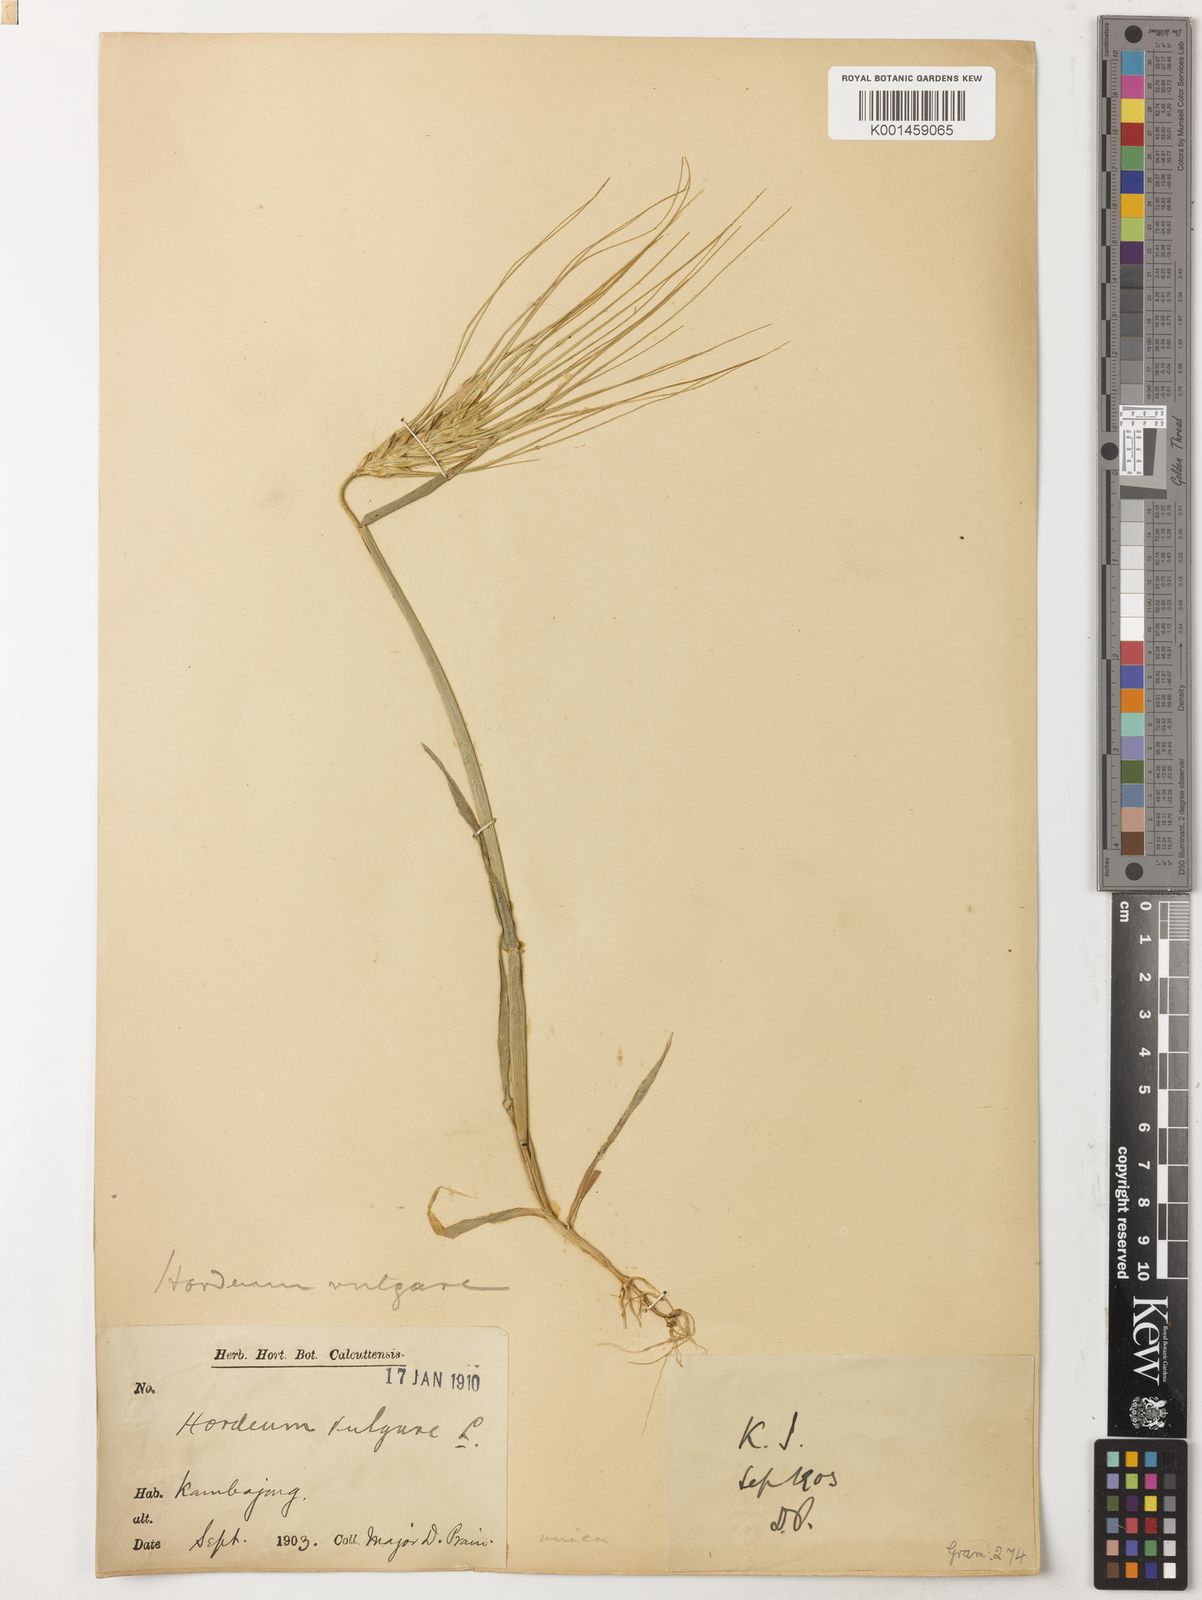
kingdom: Plantae
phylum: Tracheophyta
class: Liliopsida
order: Poales
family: Poaceae
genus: Hordeum
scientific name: Hordeum vulgare
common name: Common barley
